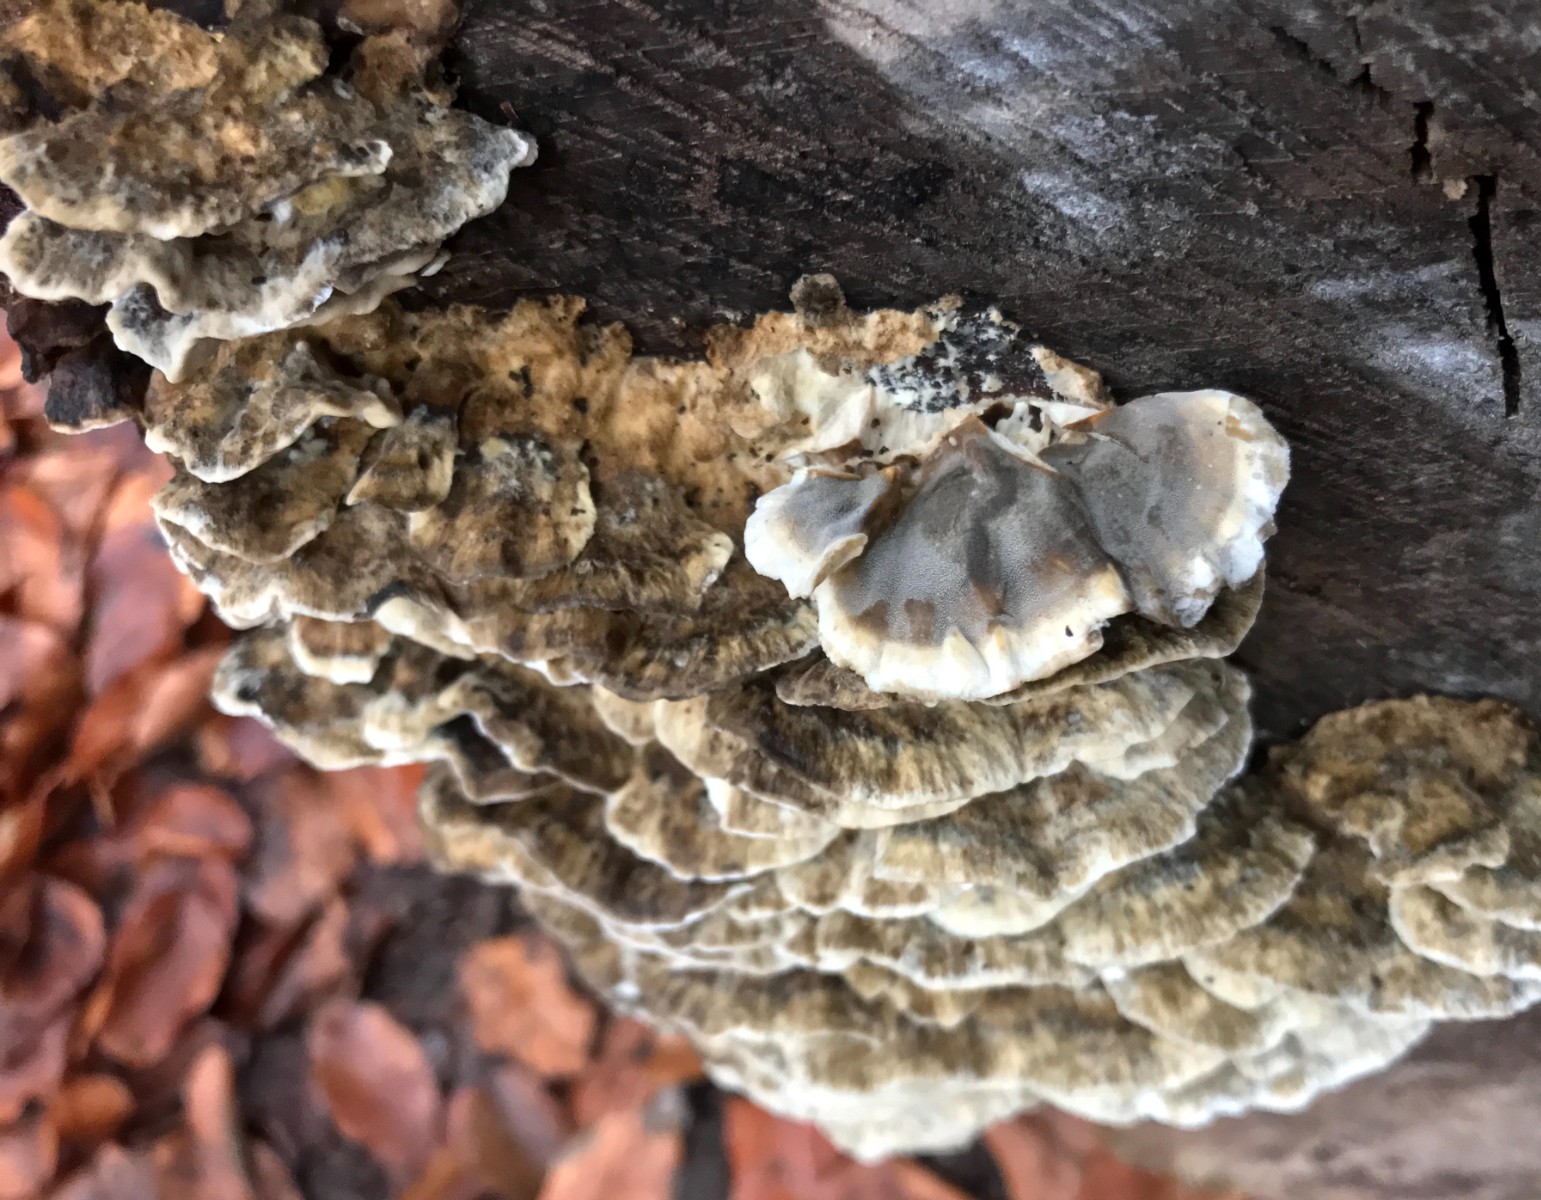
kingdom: Fungi
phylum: Basidiomycota
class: Agaricomycetes
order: Polyporales
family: Phanerochaetaceae
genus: Bjerkandera
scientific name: Bjerkandera adusta
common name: sveden sodporesvamp
